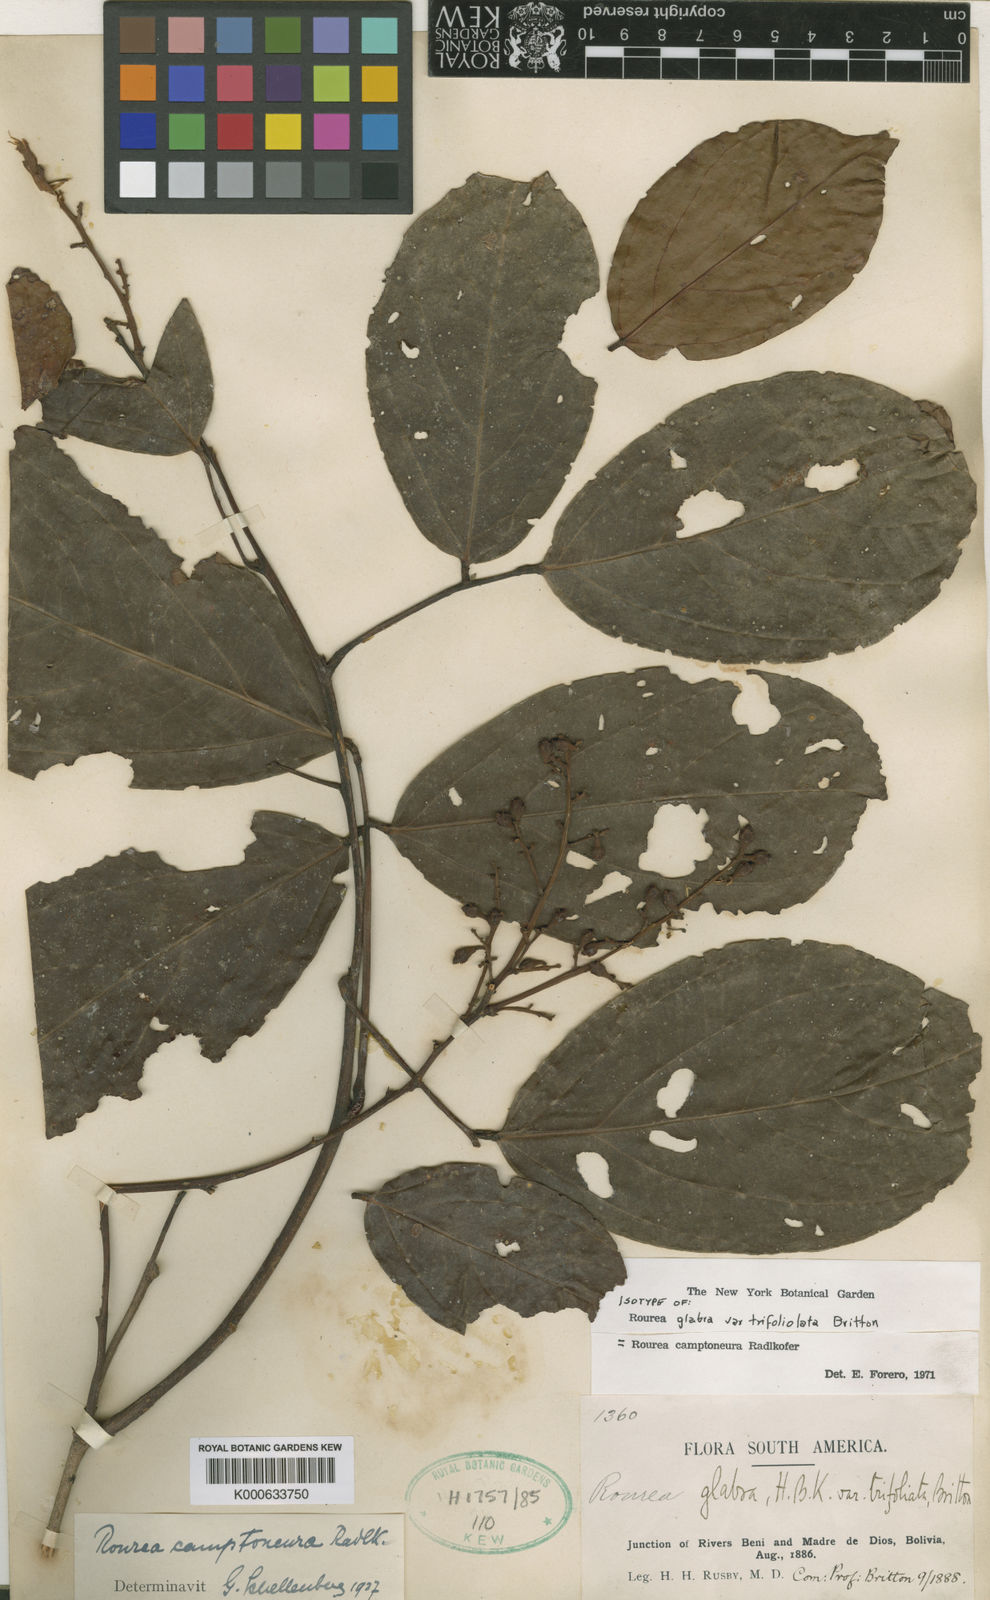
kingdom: Plantae
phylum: Tracheophyta
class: Magnoliopsida
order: Oxalidales
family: Connaraceae
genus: Rourea
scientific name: Rourea glabra
